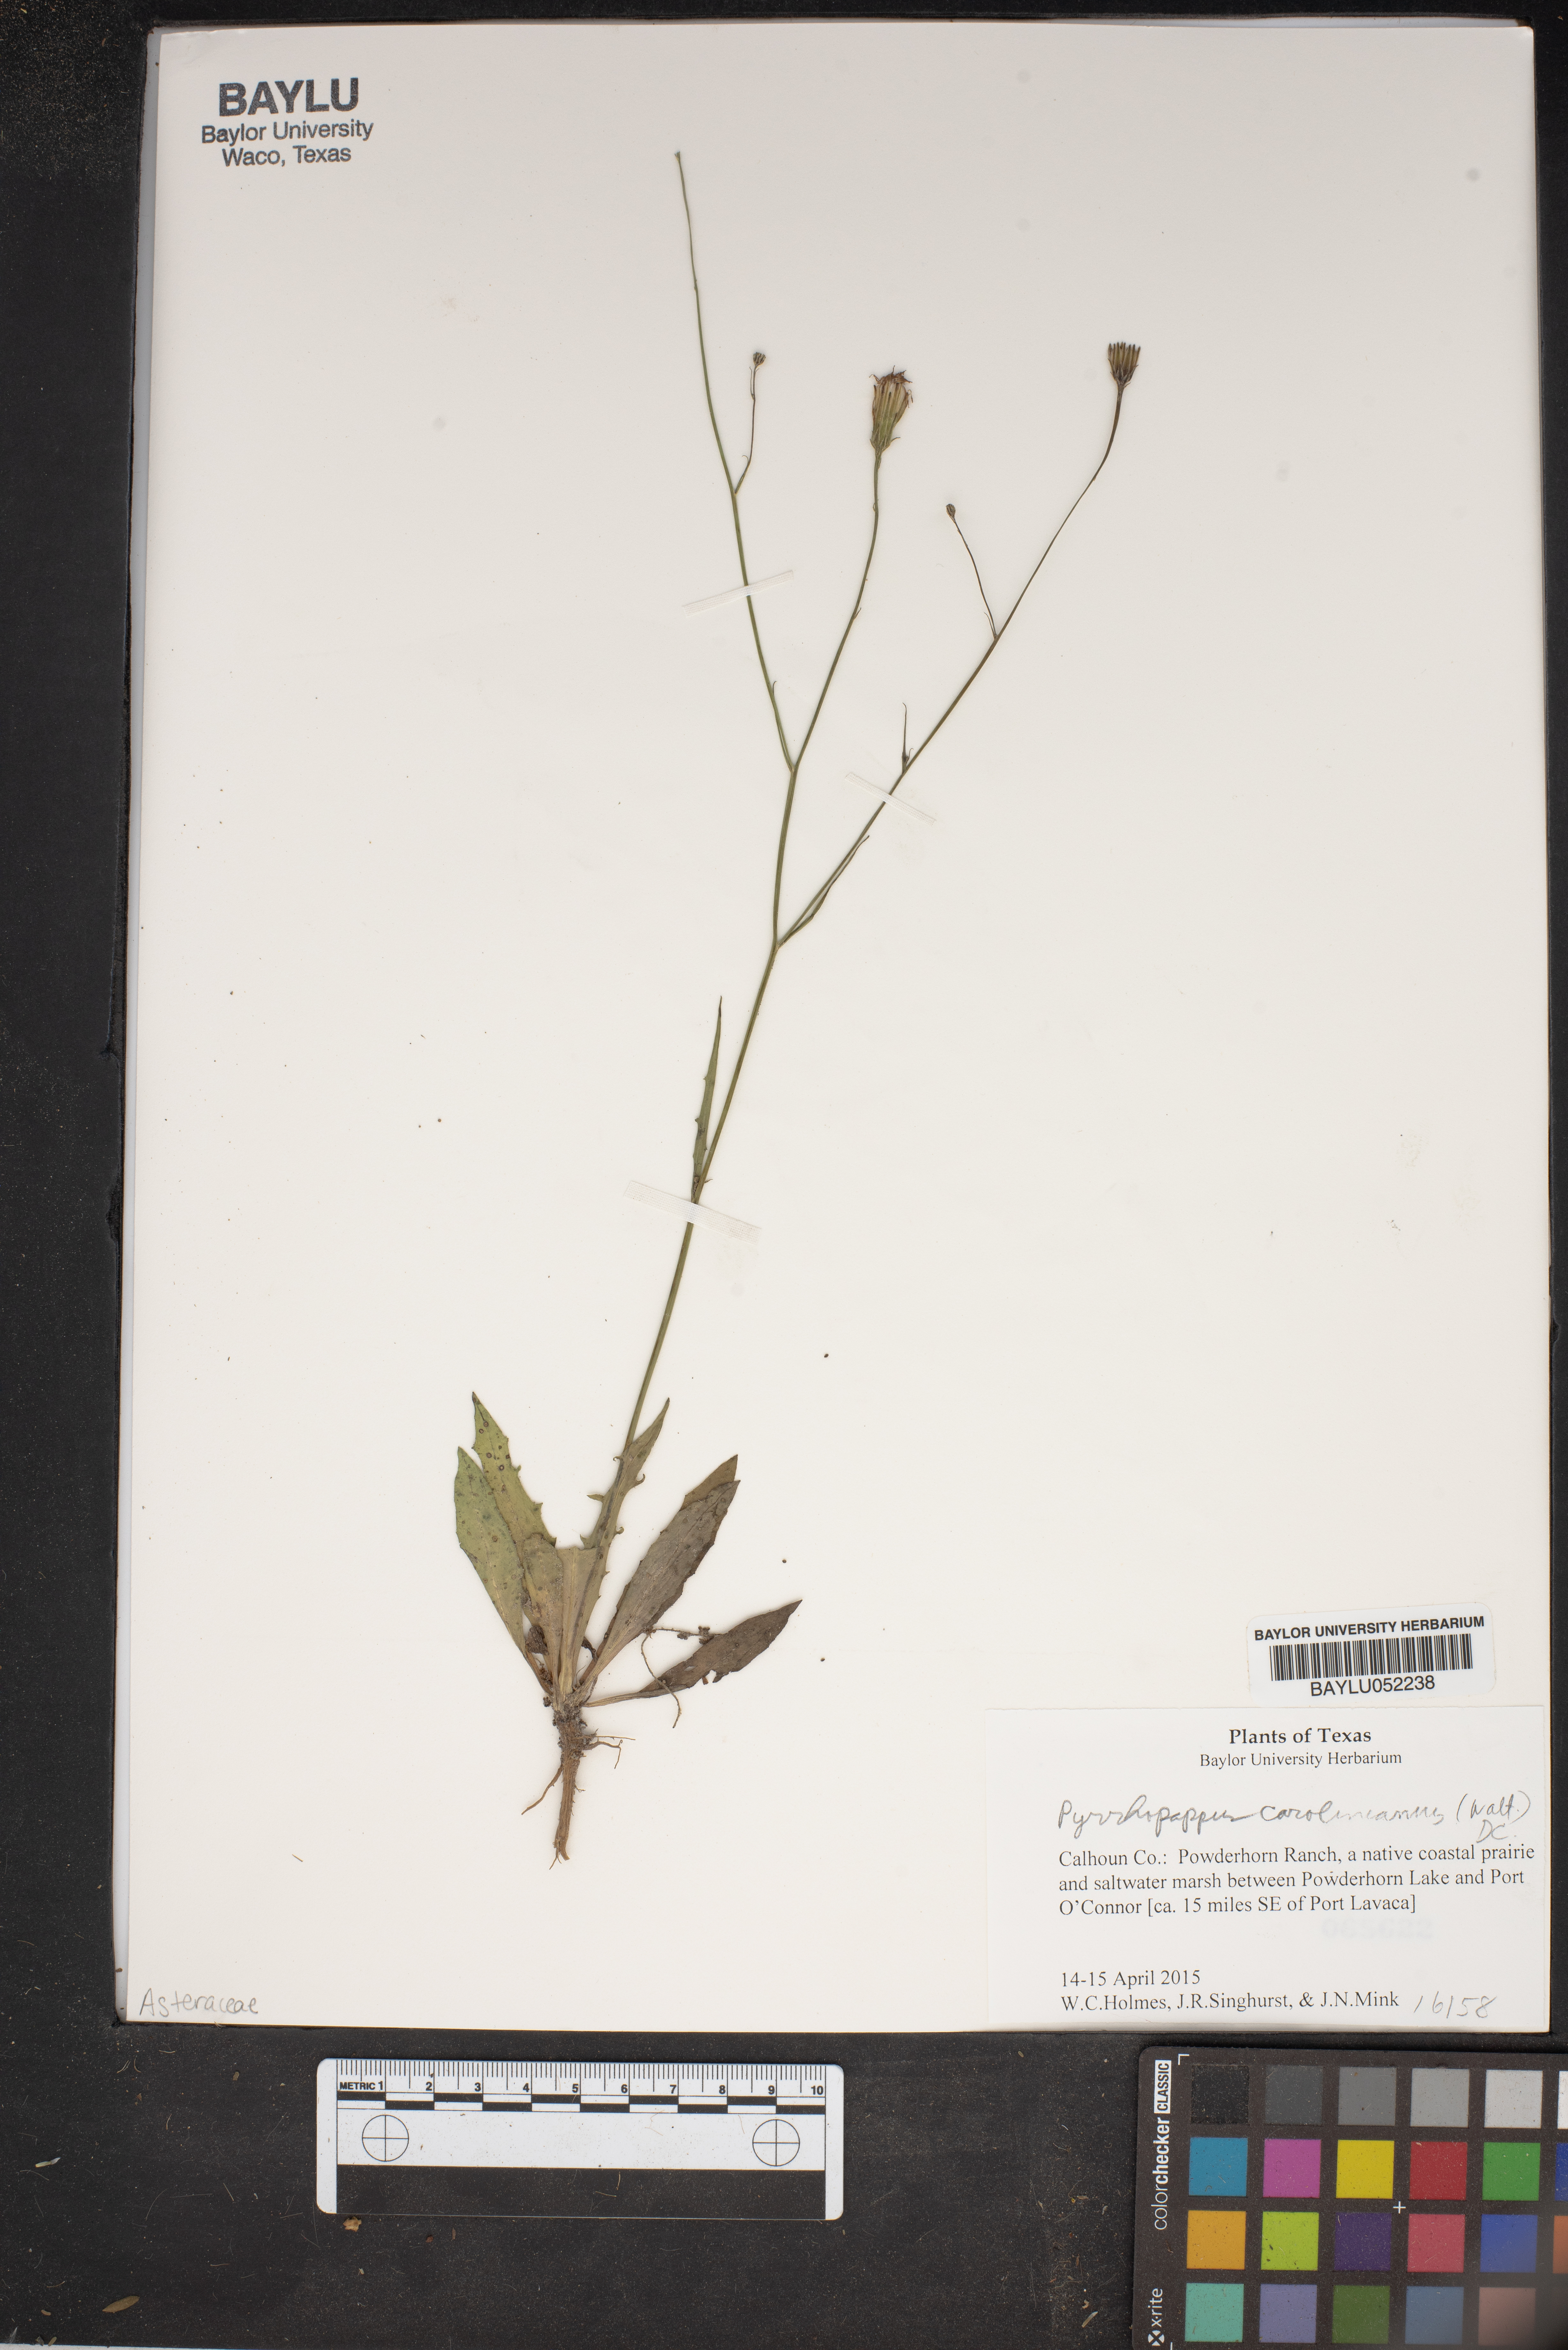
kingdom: Plantae
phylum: Tracheophyta
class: Magnoliopsida
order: Asterales
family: Asteraceae
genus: Pyrrhopappus
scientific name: Pyrrhopappus carolinianus
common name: Carolina desert-chicory
